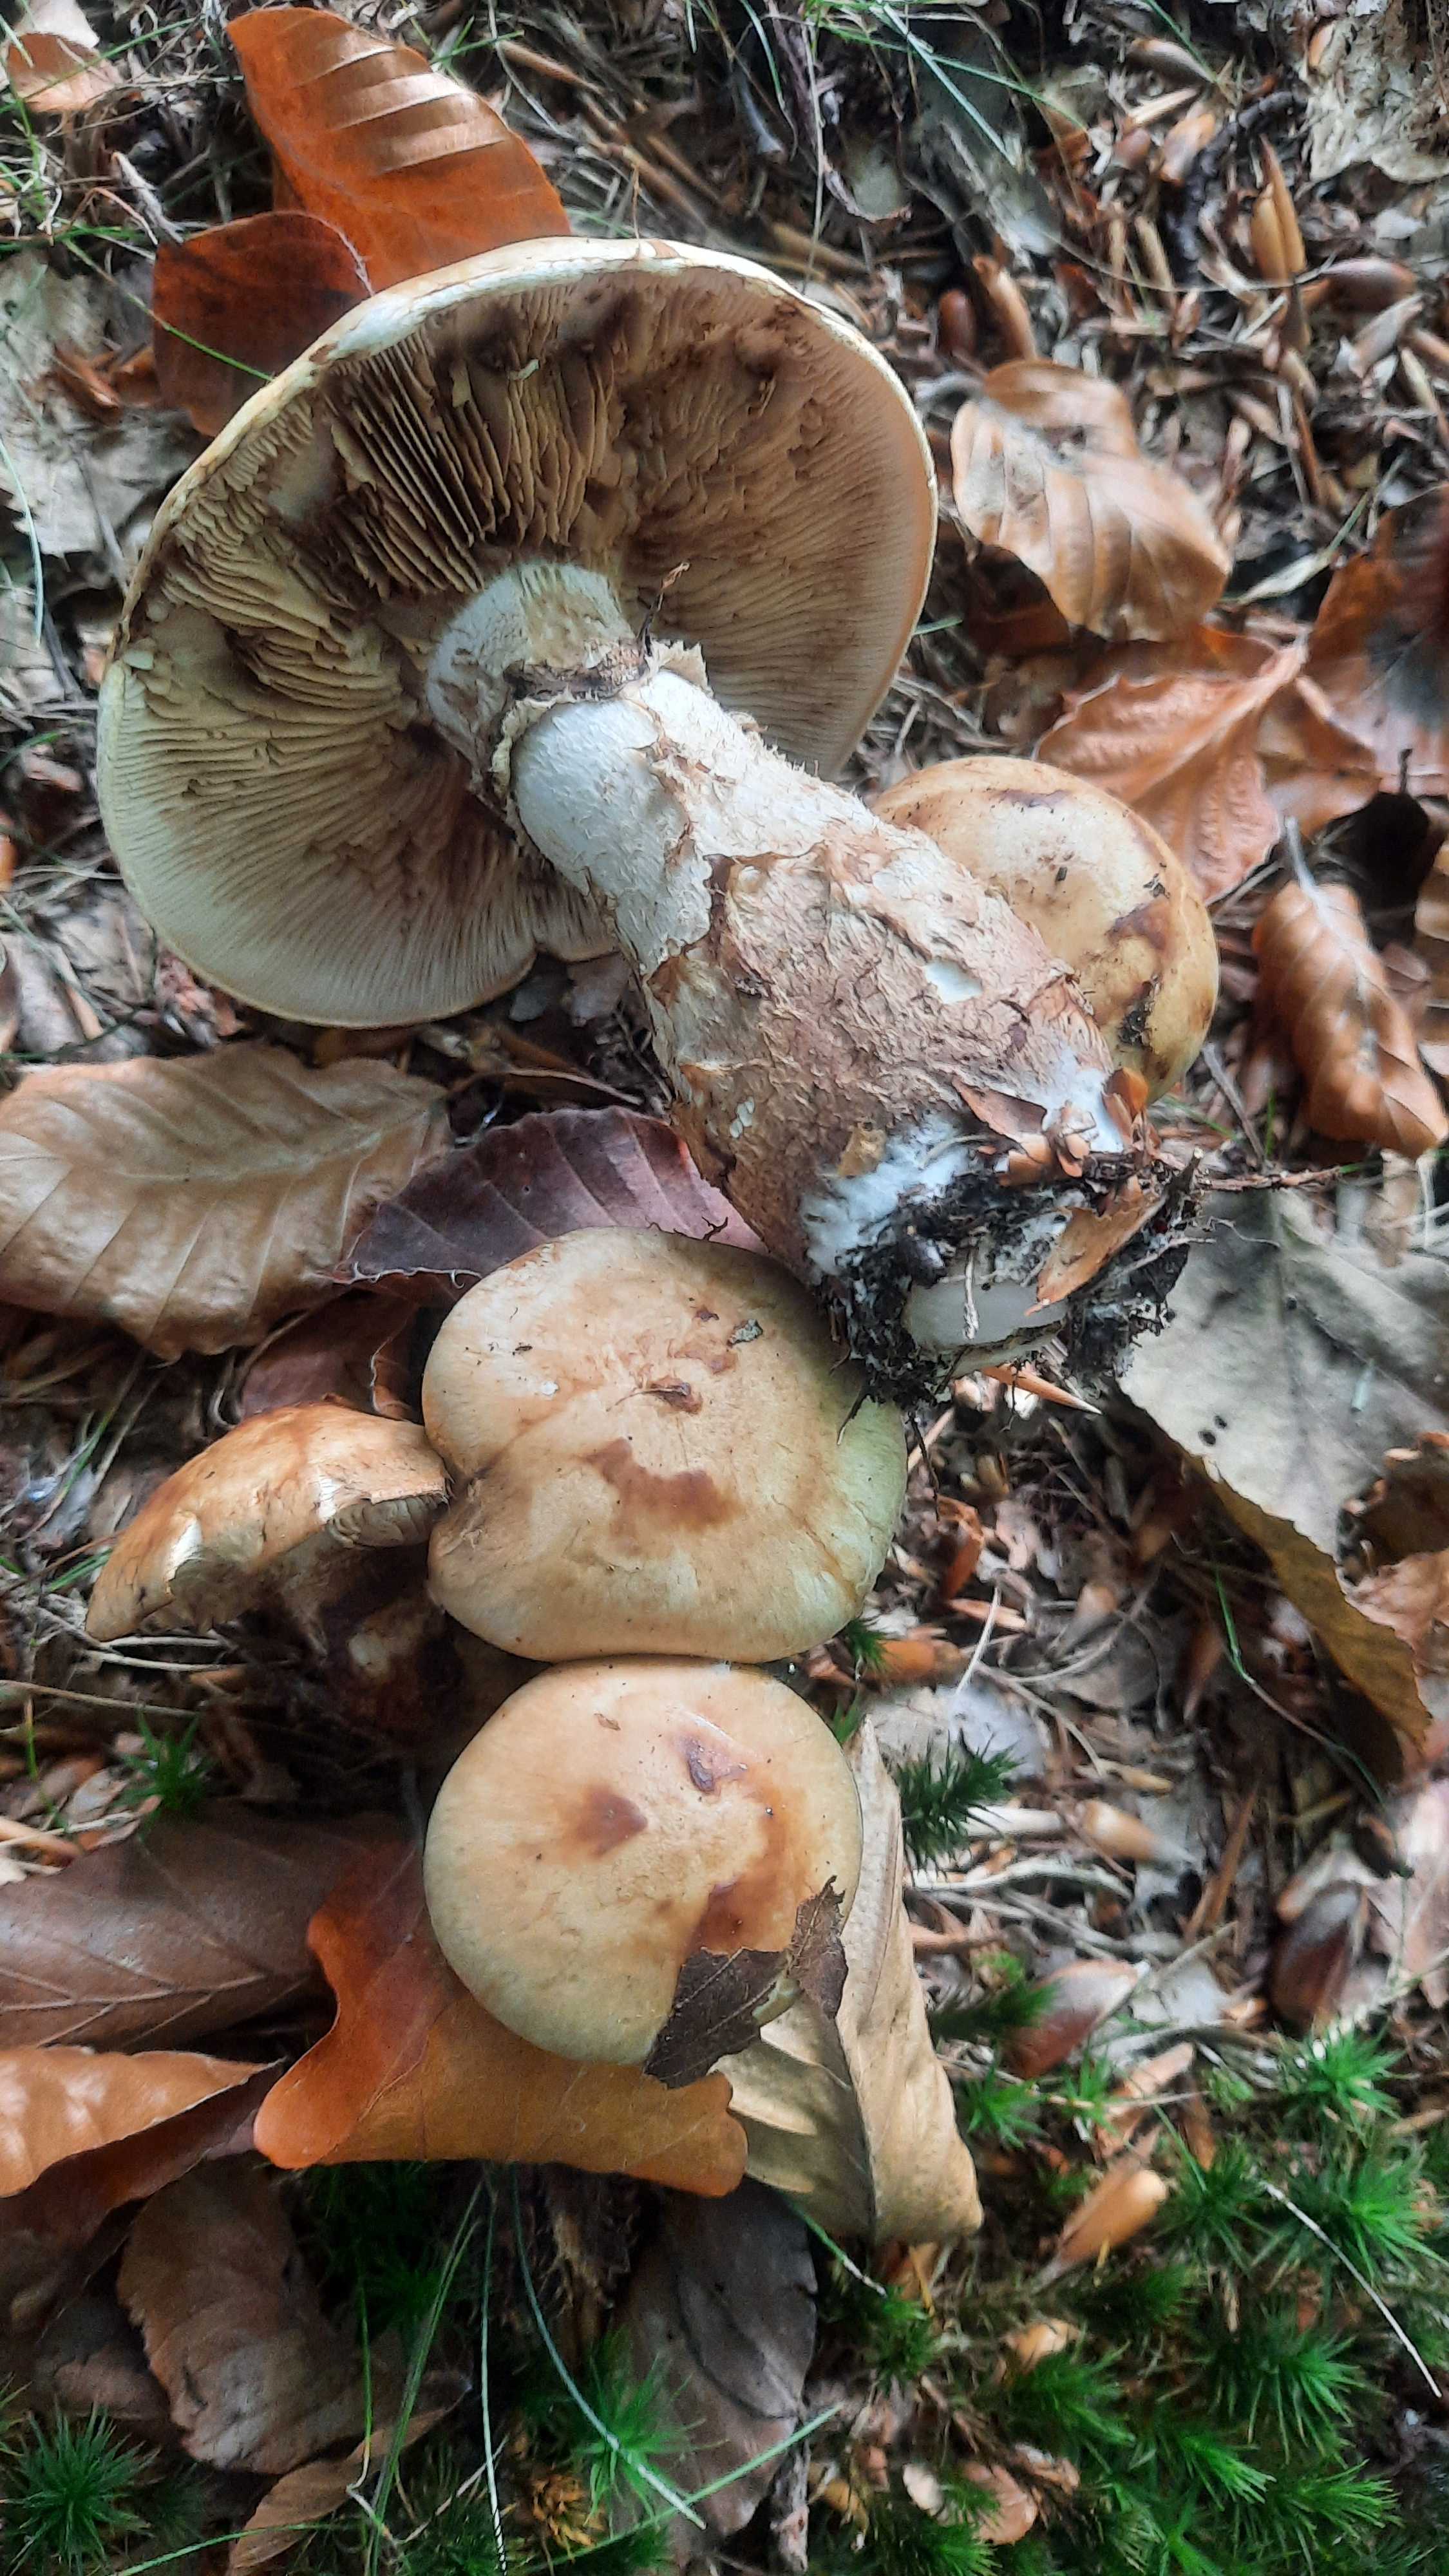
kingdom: Fungi
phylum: Basidiomycota
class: Agaricomycetes
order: Agaricales
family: Hymenogastraceae
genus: Hebeloma
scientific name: Hebeloma radicosum
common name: pælerods-tåreblad
